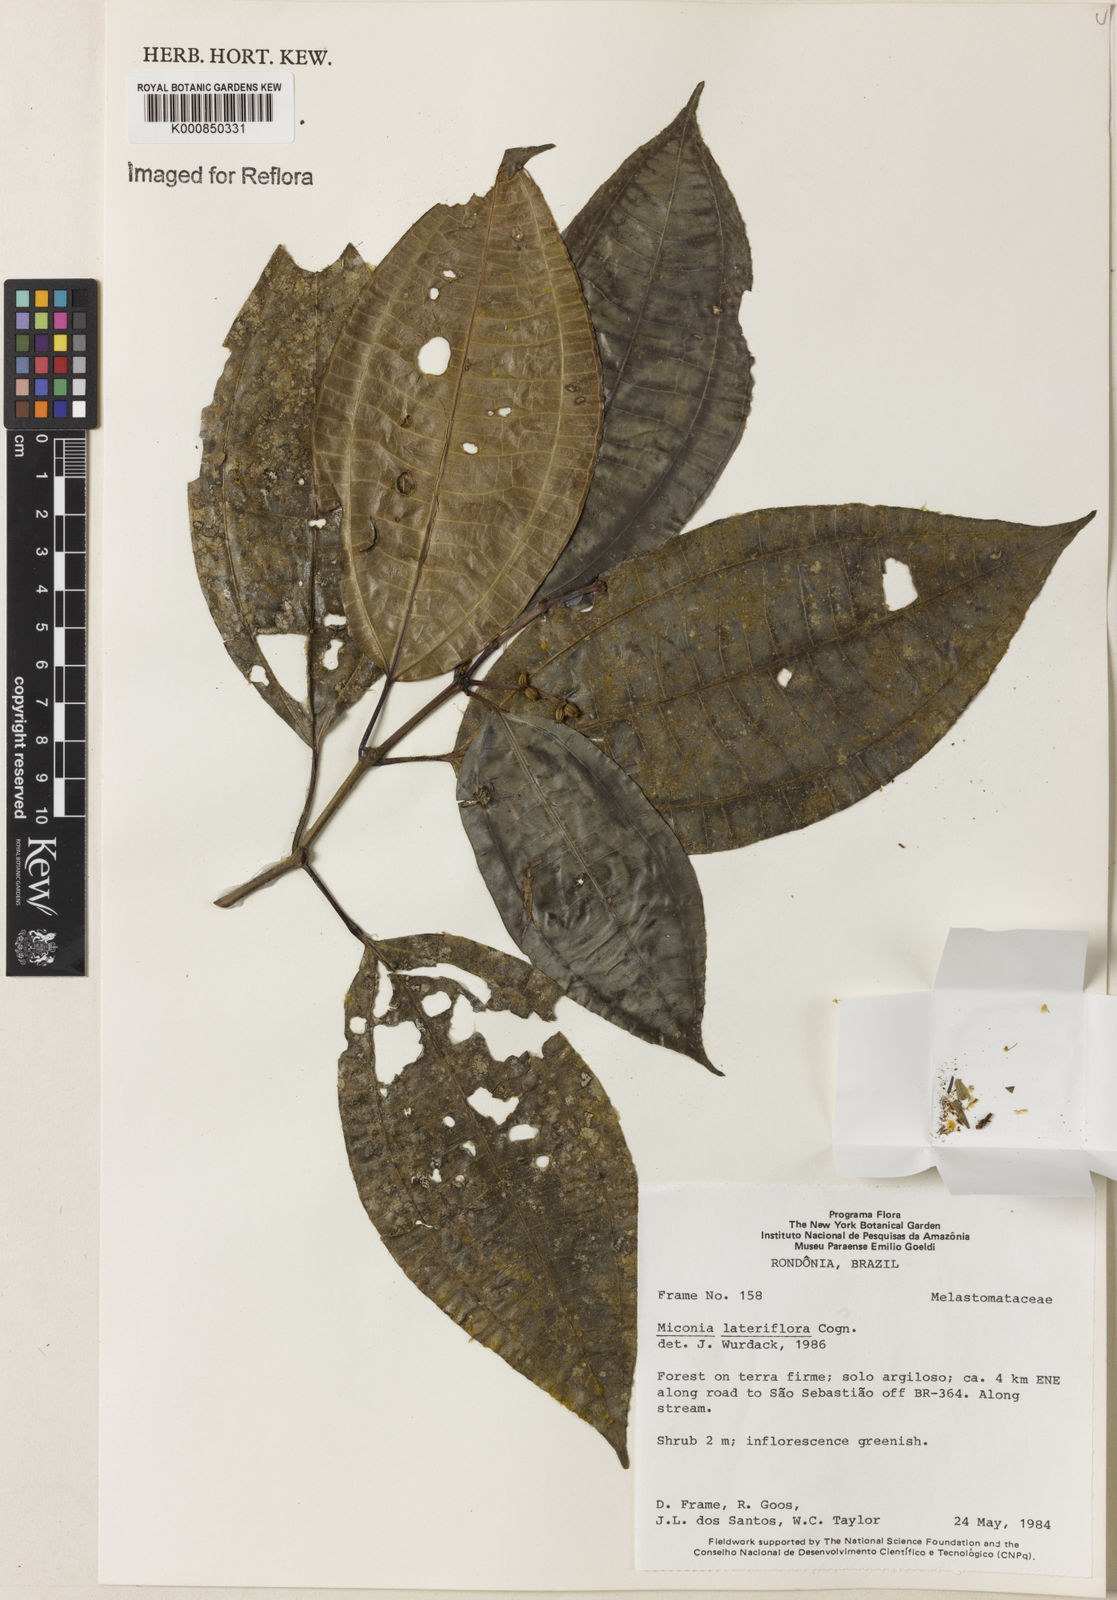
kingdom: Plantae
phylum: Tracheophyta
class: Magnoliopsida
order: Myrtales
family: Melastomataceae
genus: Miconia
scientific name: Miconia lateriflora
